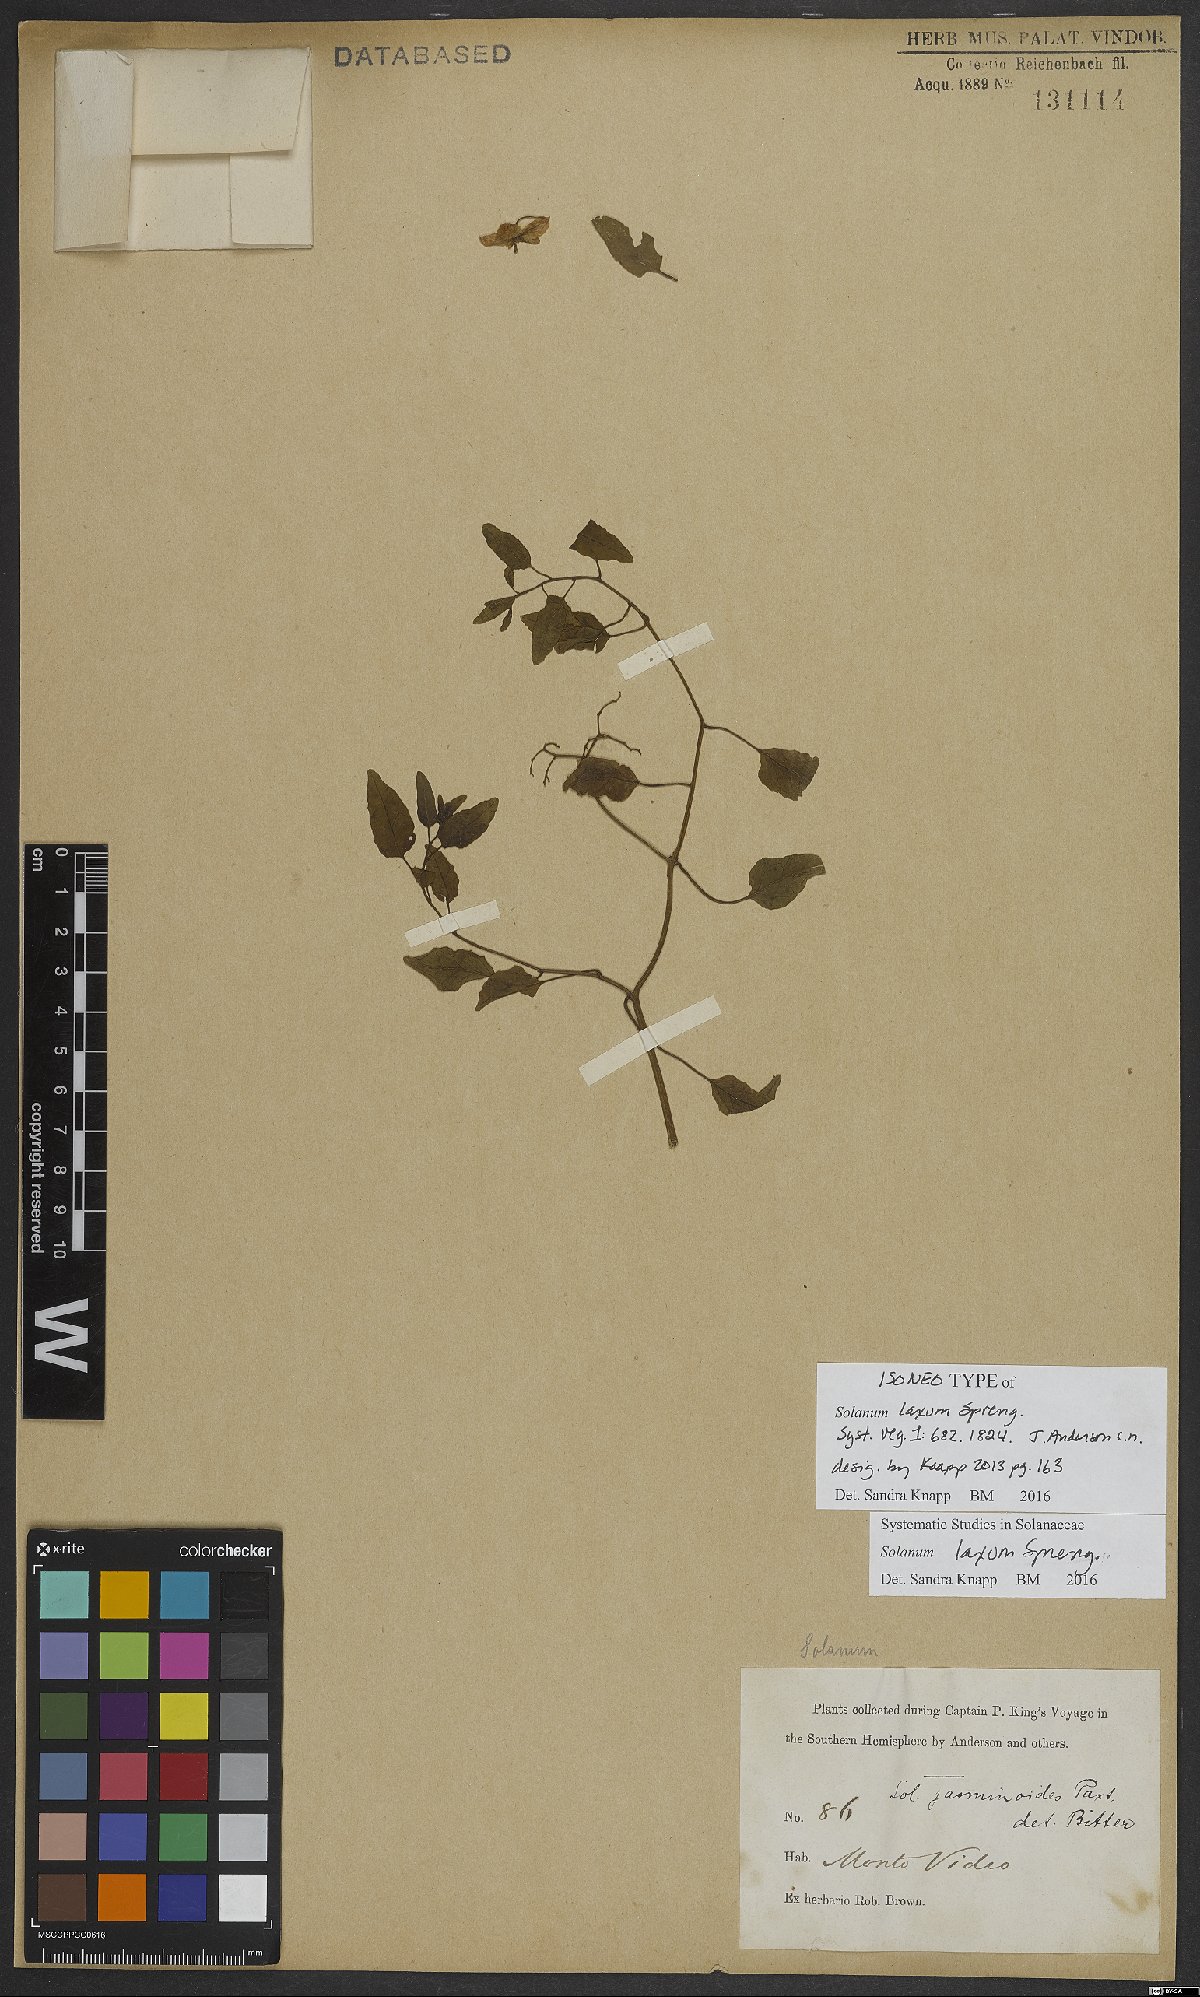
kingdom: Plantae
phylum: Tracheophyta
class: Magnoliopsida
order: Solanales
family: Solanaceae
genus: Solanum
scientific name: Solanum laxum
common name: Nightshade
